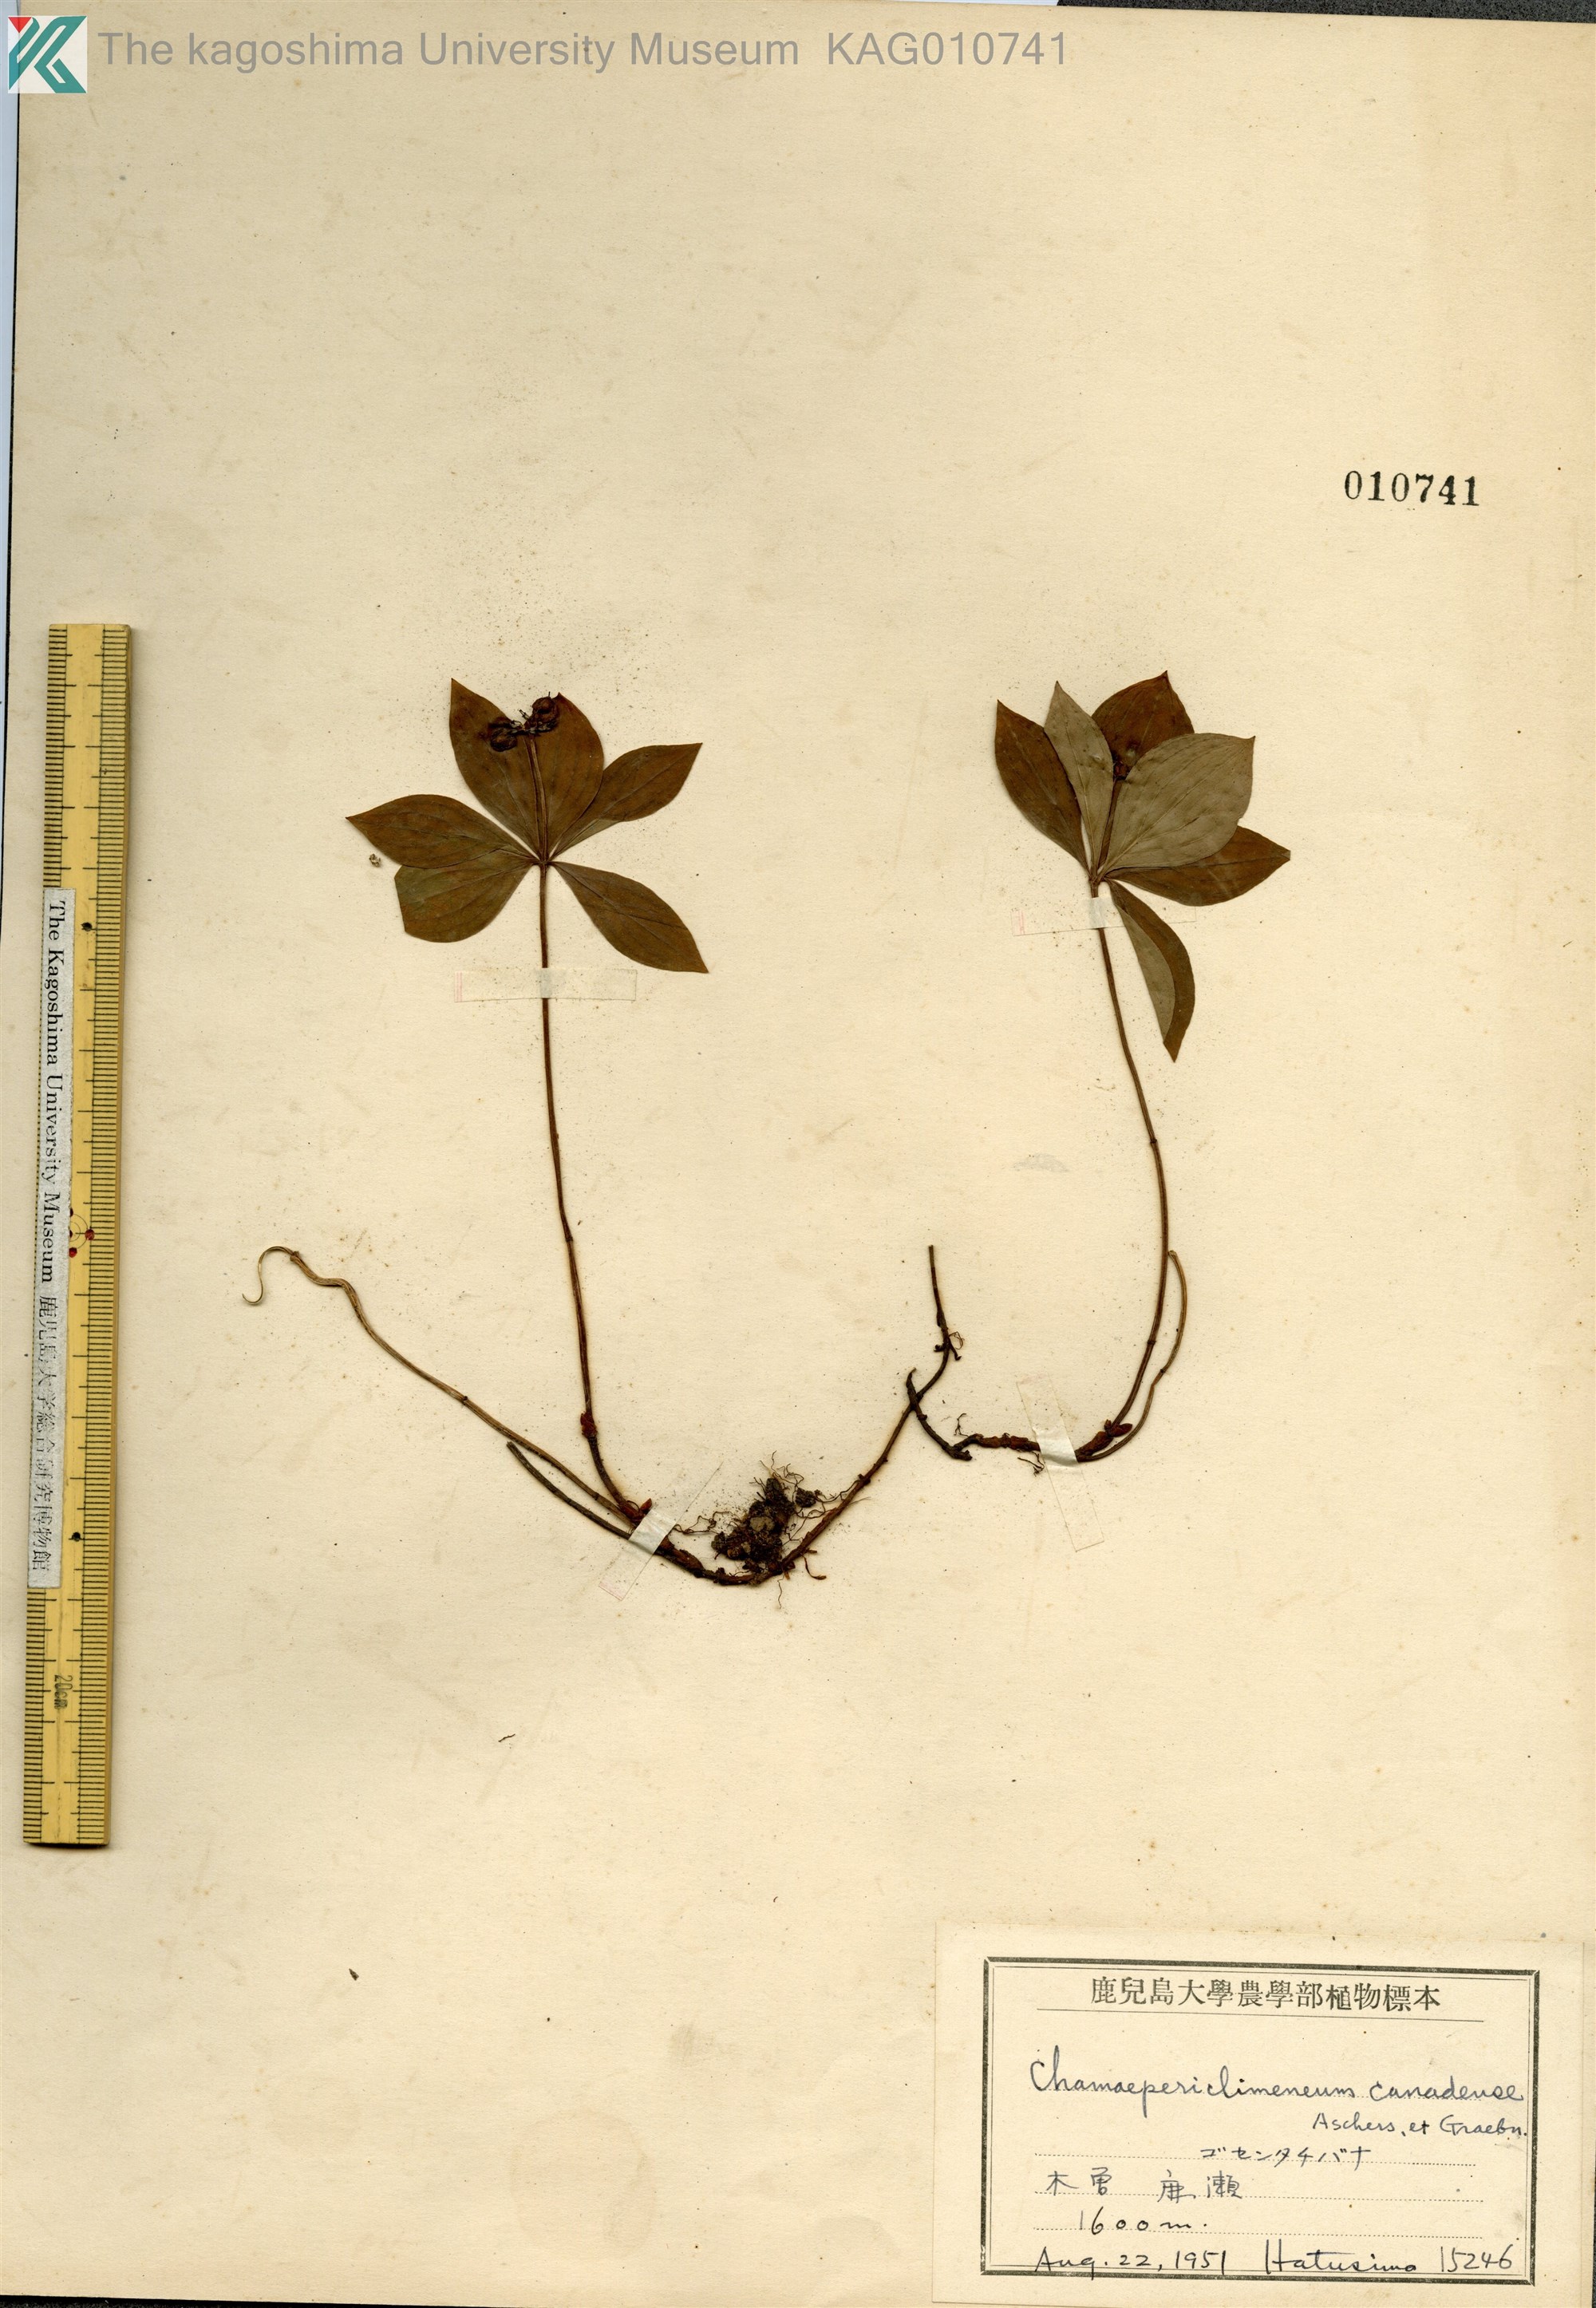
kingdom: Plantae
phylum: Tracheophyta
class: Magnoliopsida
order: Cornales
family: Cornaceae
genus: Cornus
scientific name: Cornus canadensis
